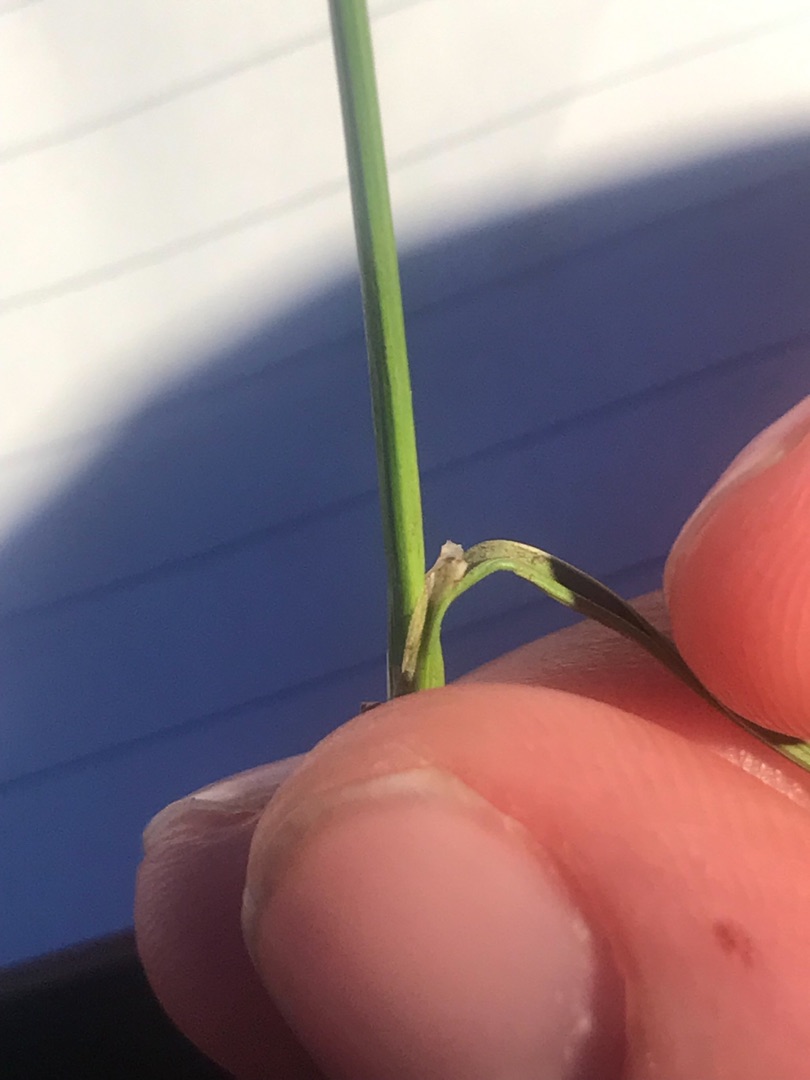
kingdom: Plantae
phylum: Tracheophyta
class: Liliopsida
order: Poales
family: Juncaceae
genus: Juncus
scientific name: Juncus compressus
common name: Fladstrået siv
